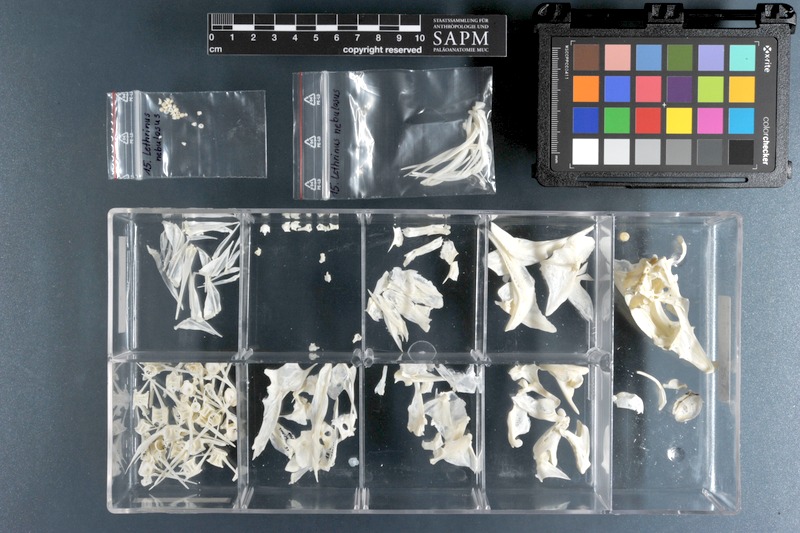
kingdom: Animalia
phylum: Chordata
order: Perciformes
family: Lethrinidae
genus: Lethrinus
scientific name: Lethrinus nebulosus
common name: Spangled emperor
